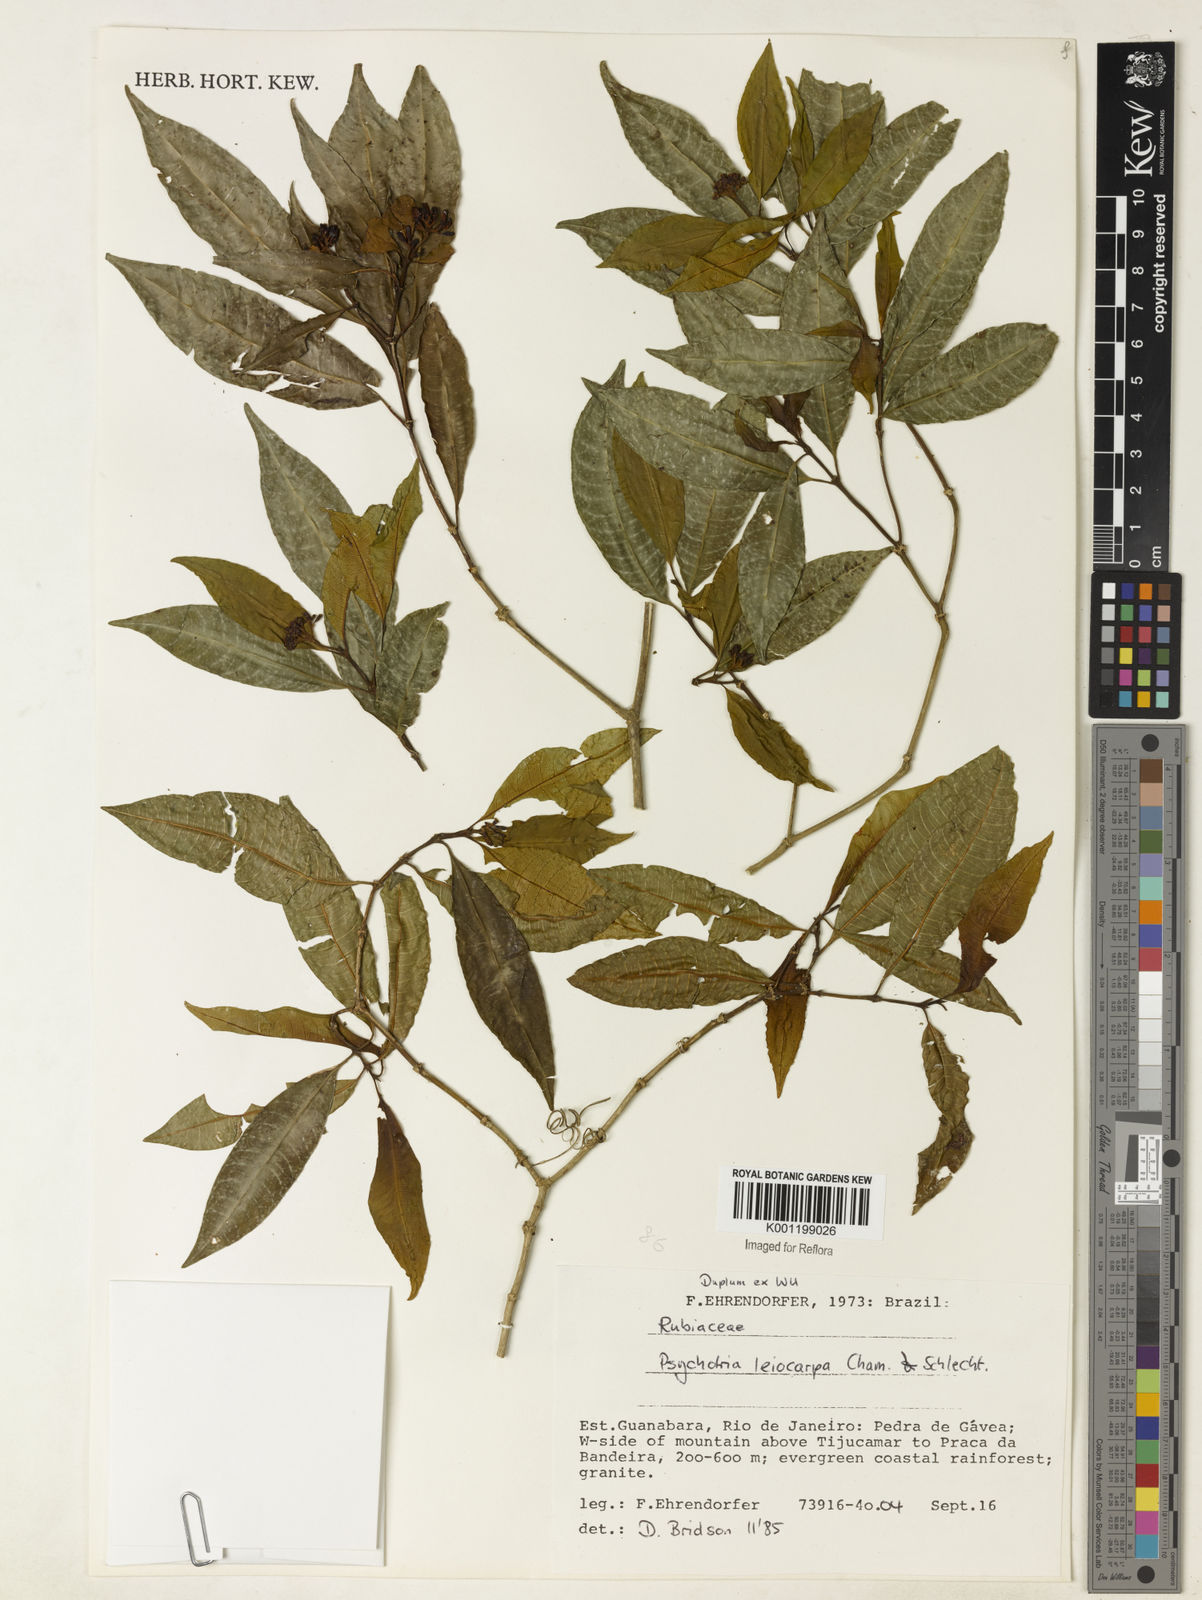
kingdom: Plantae
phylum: Tracheophyta
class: Magnoliopsida
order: Gentianales
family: Rubiaceae
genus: Psychotria
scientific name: Psychotria leiocarpa
